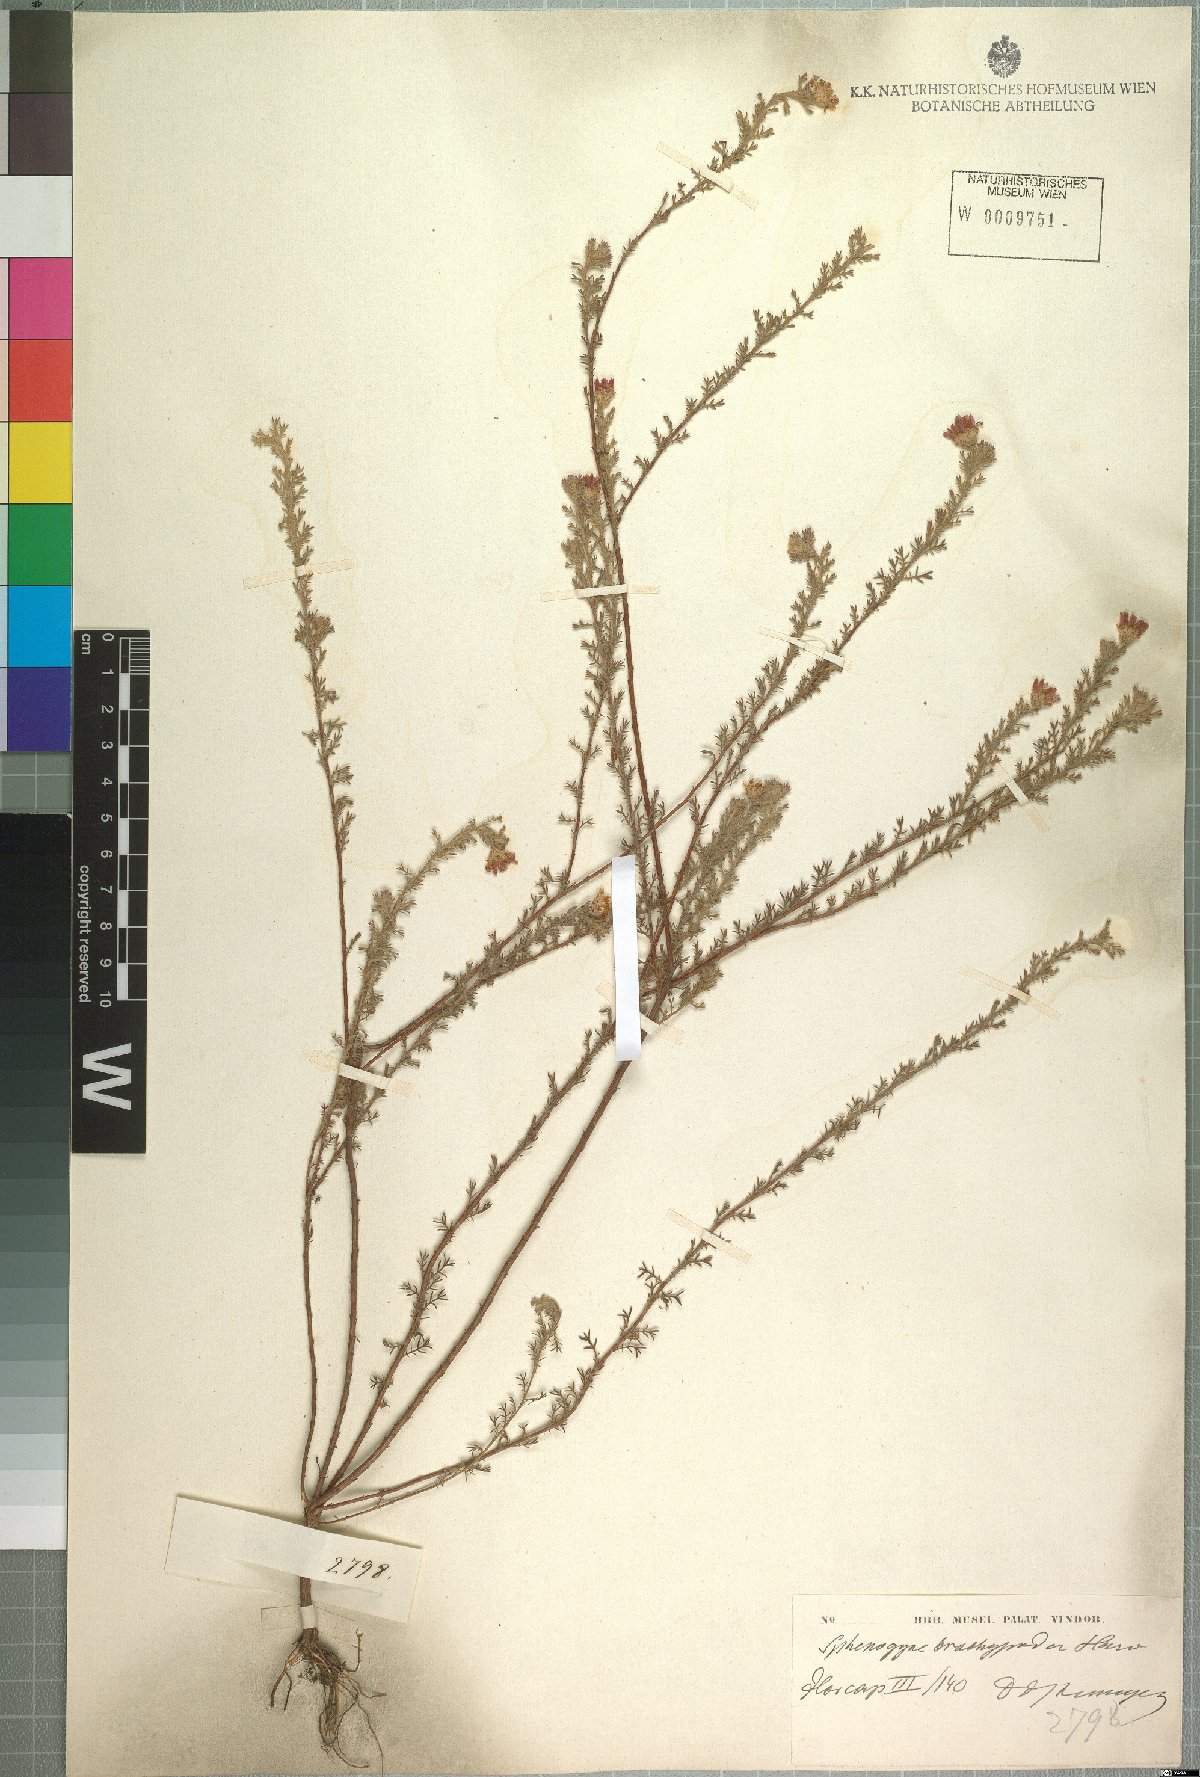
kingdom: Plantae
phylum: Tracheophyta
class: Magnoliopsida
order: Asterales
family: Asteraceae
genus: Ursinia
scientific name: Ursinia hispida
